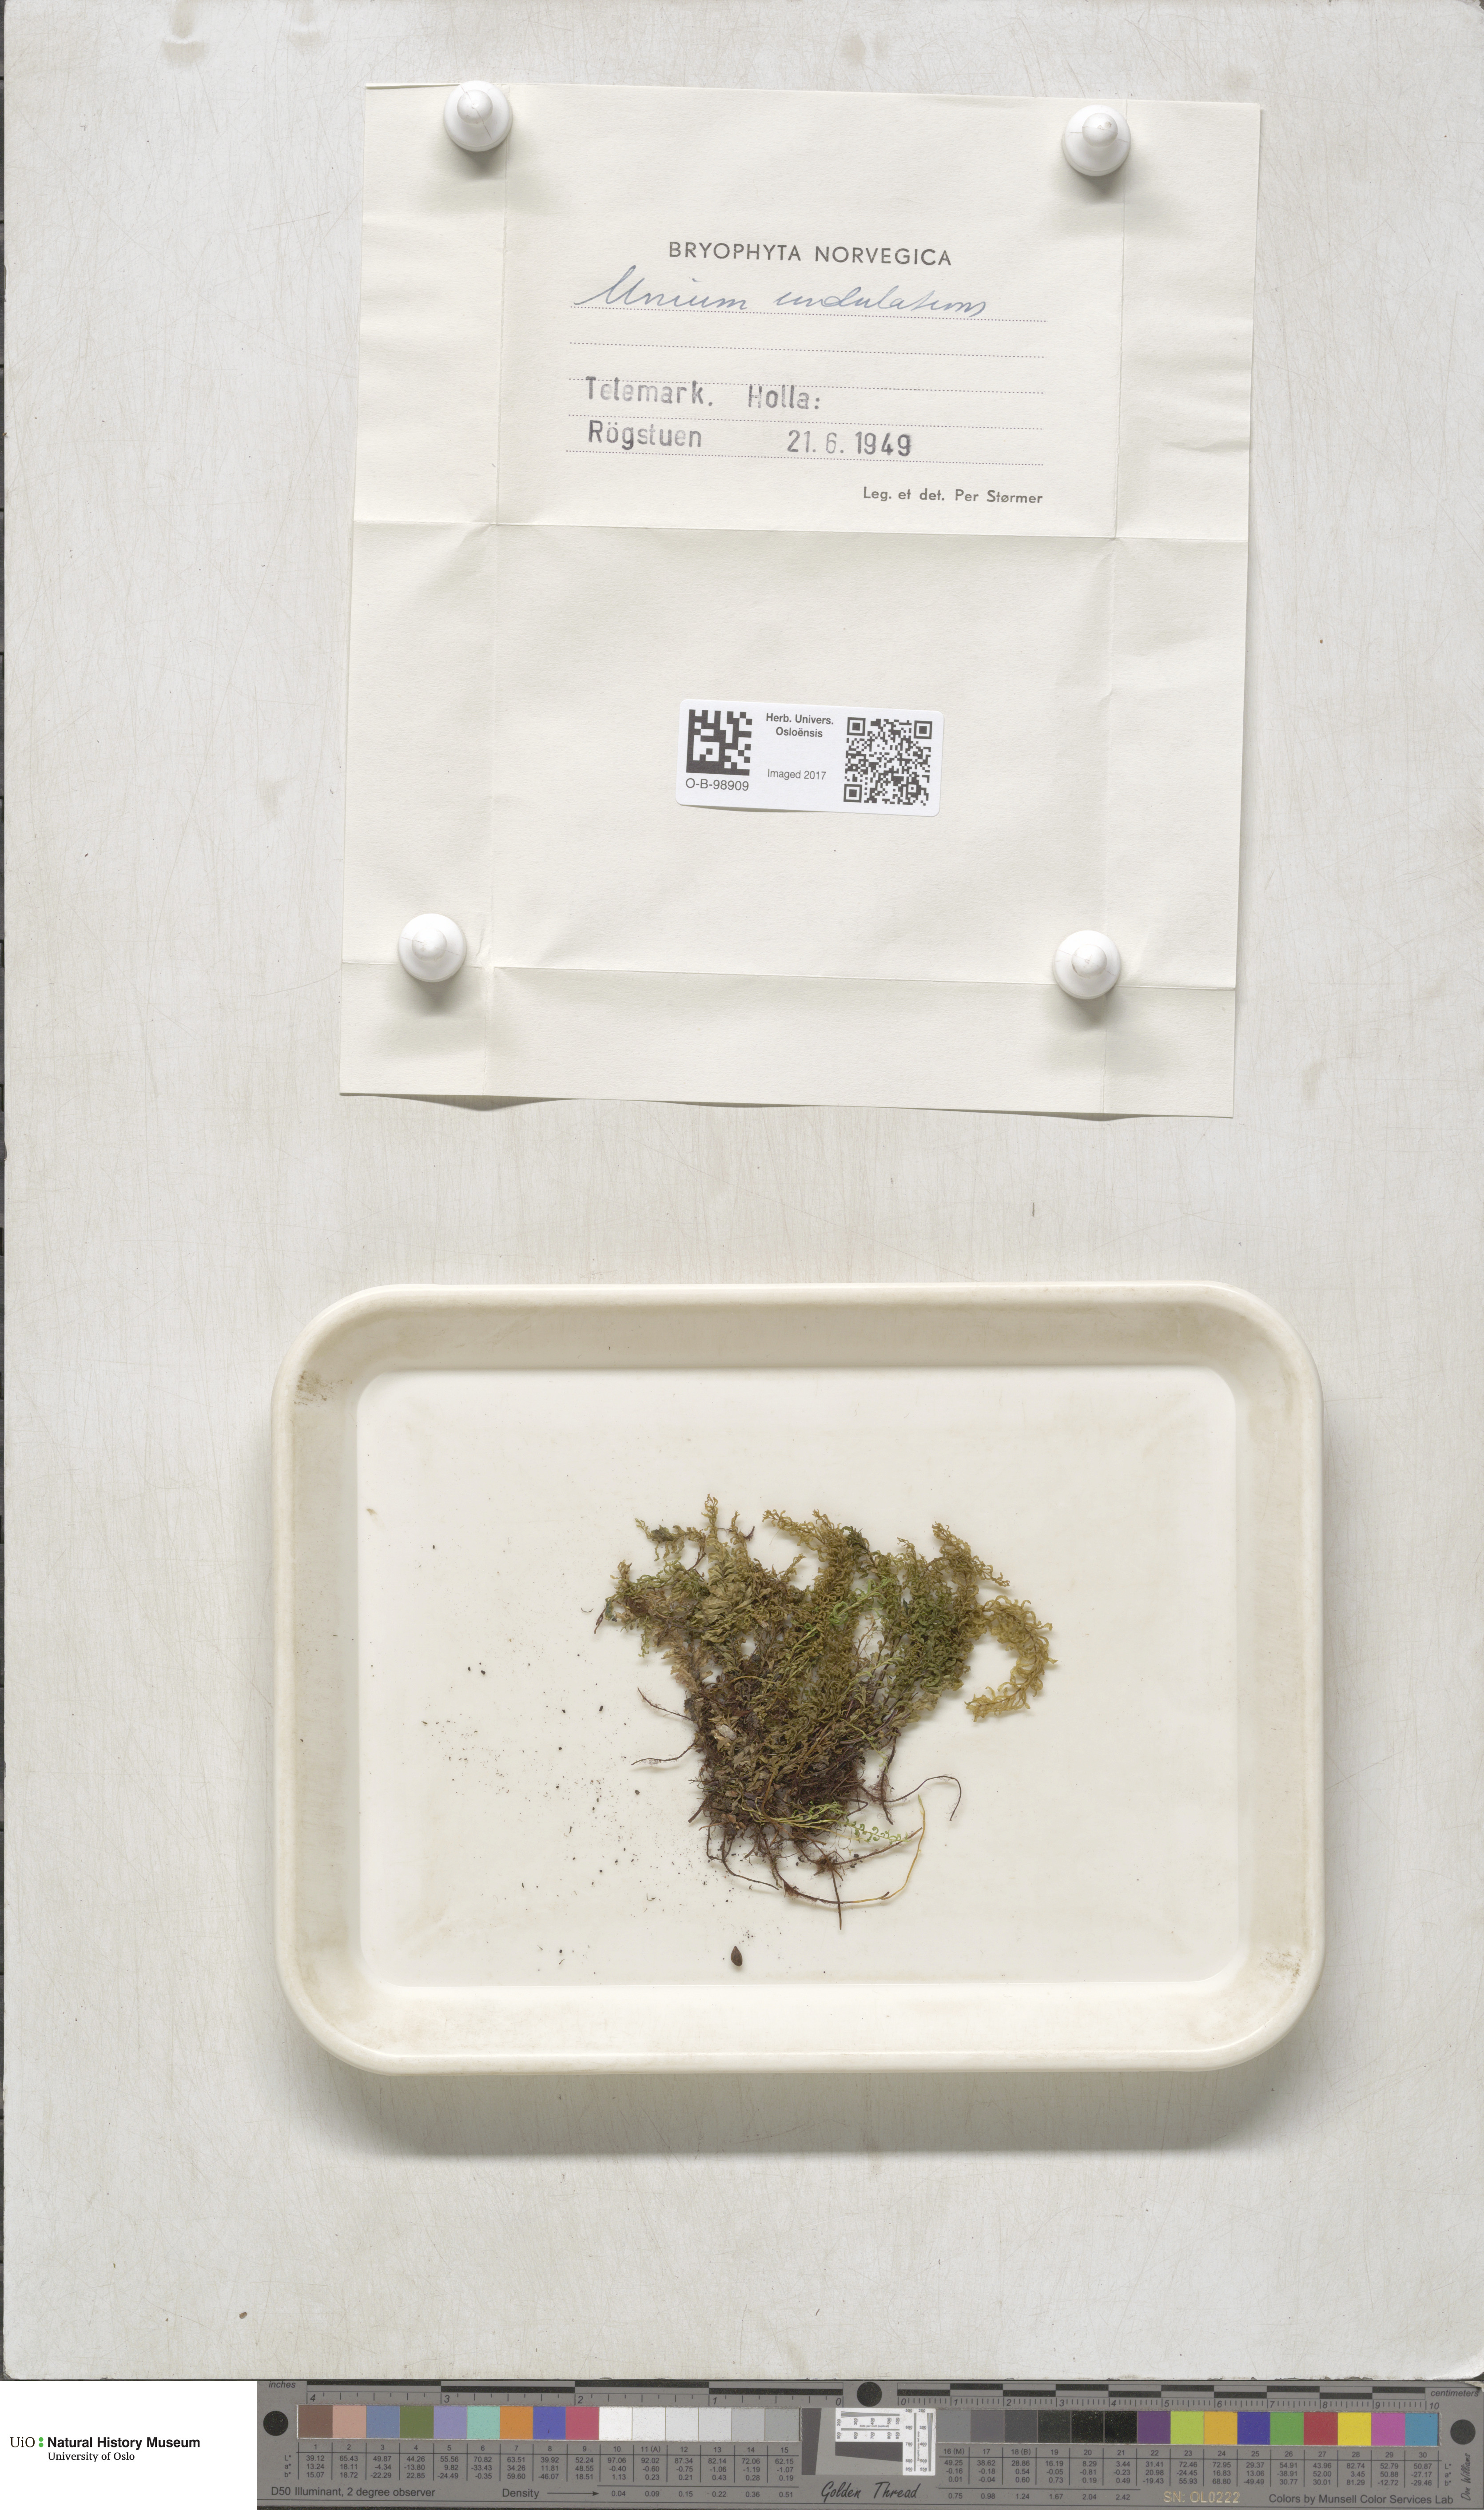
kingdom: Plantae
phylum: Bryophyta
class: Bryopsida
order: Bryales
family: Mniaceae
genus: Plagiomnium
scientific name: Plagiomnium undulatum
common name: Hart's-tongue thyme-moss
